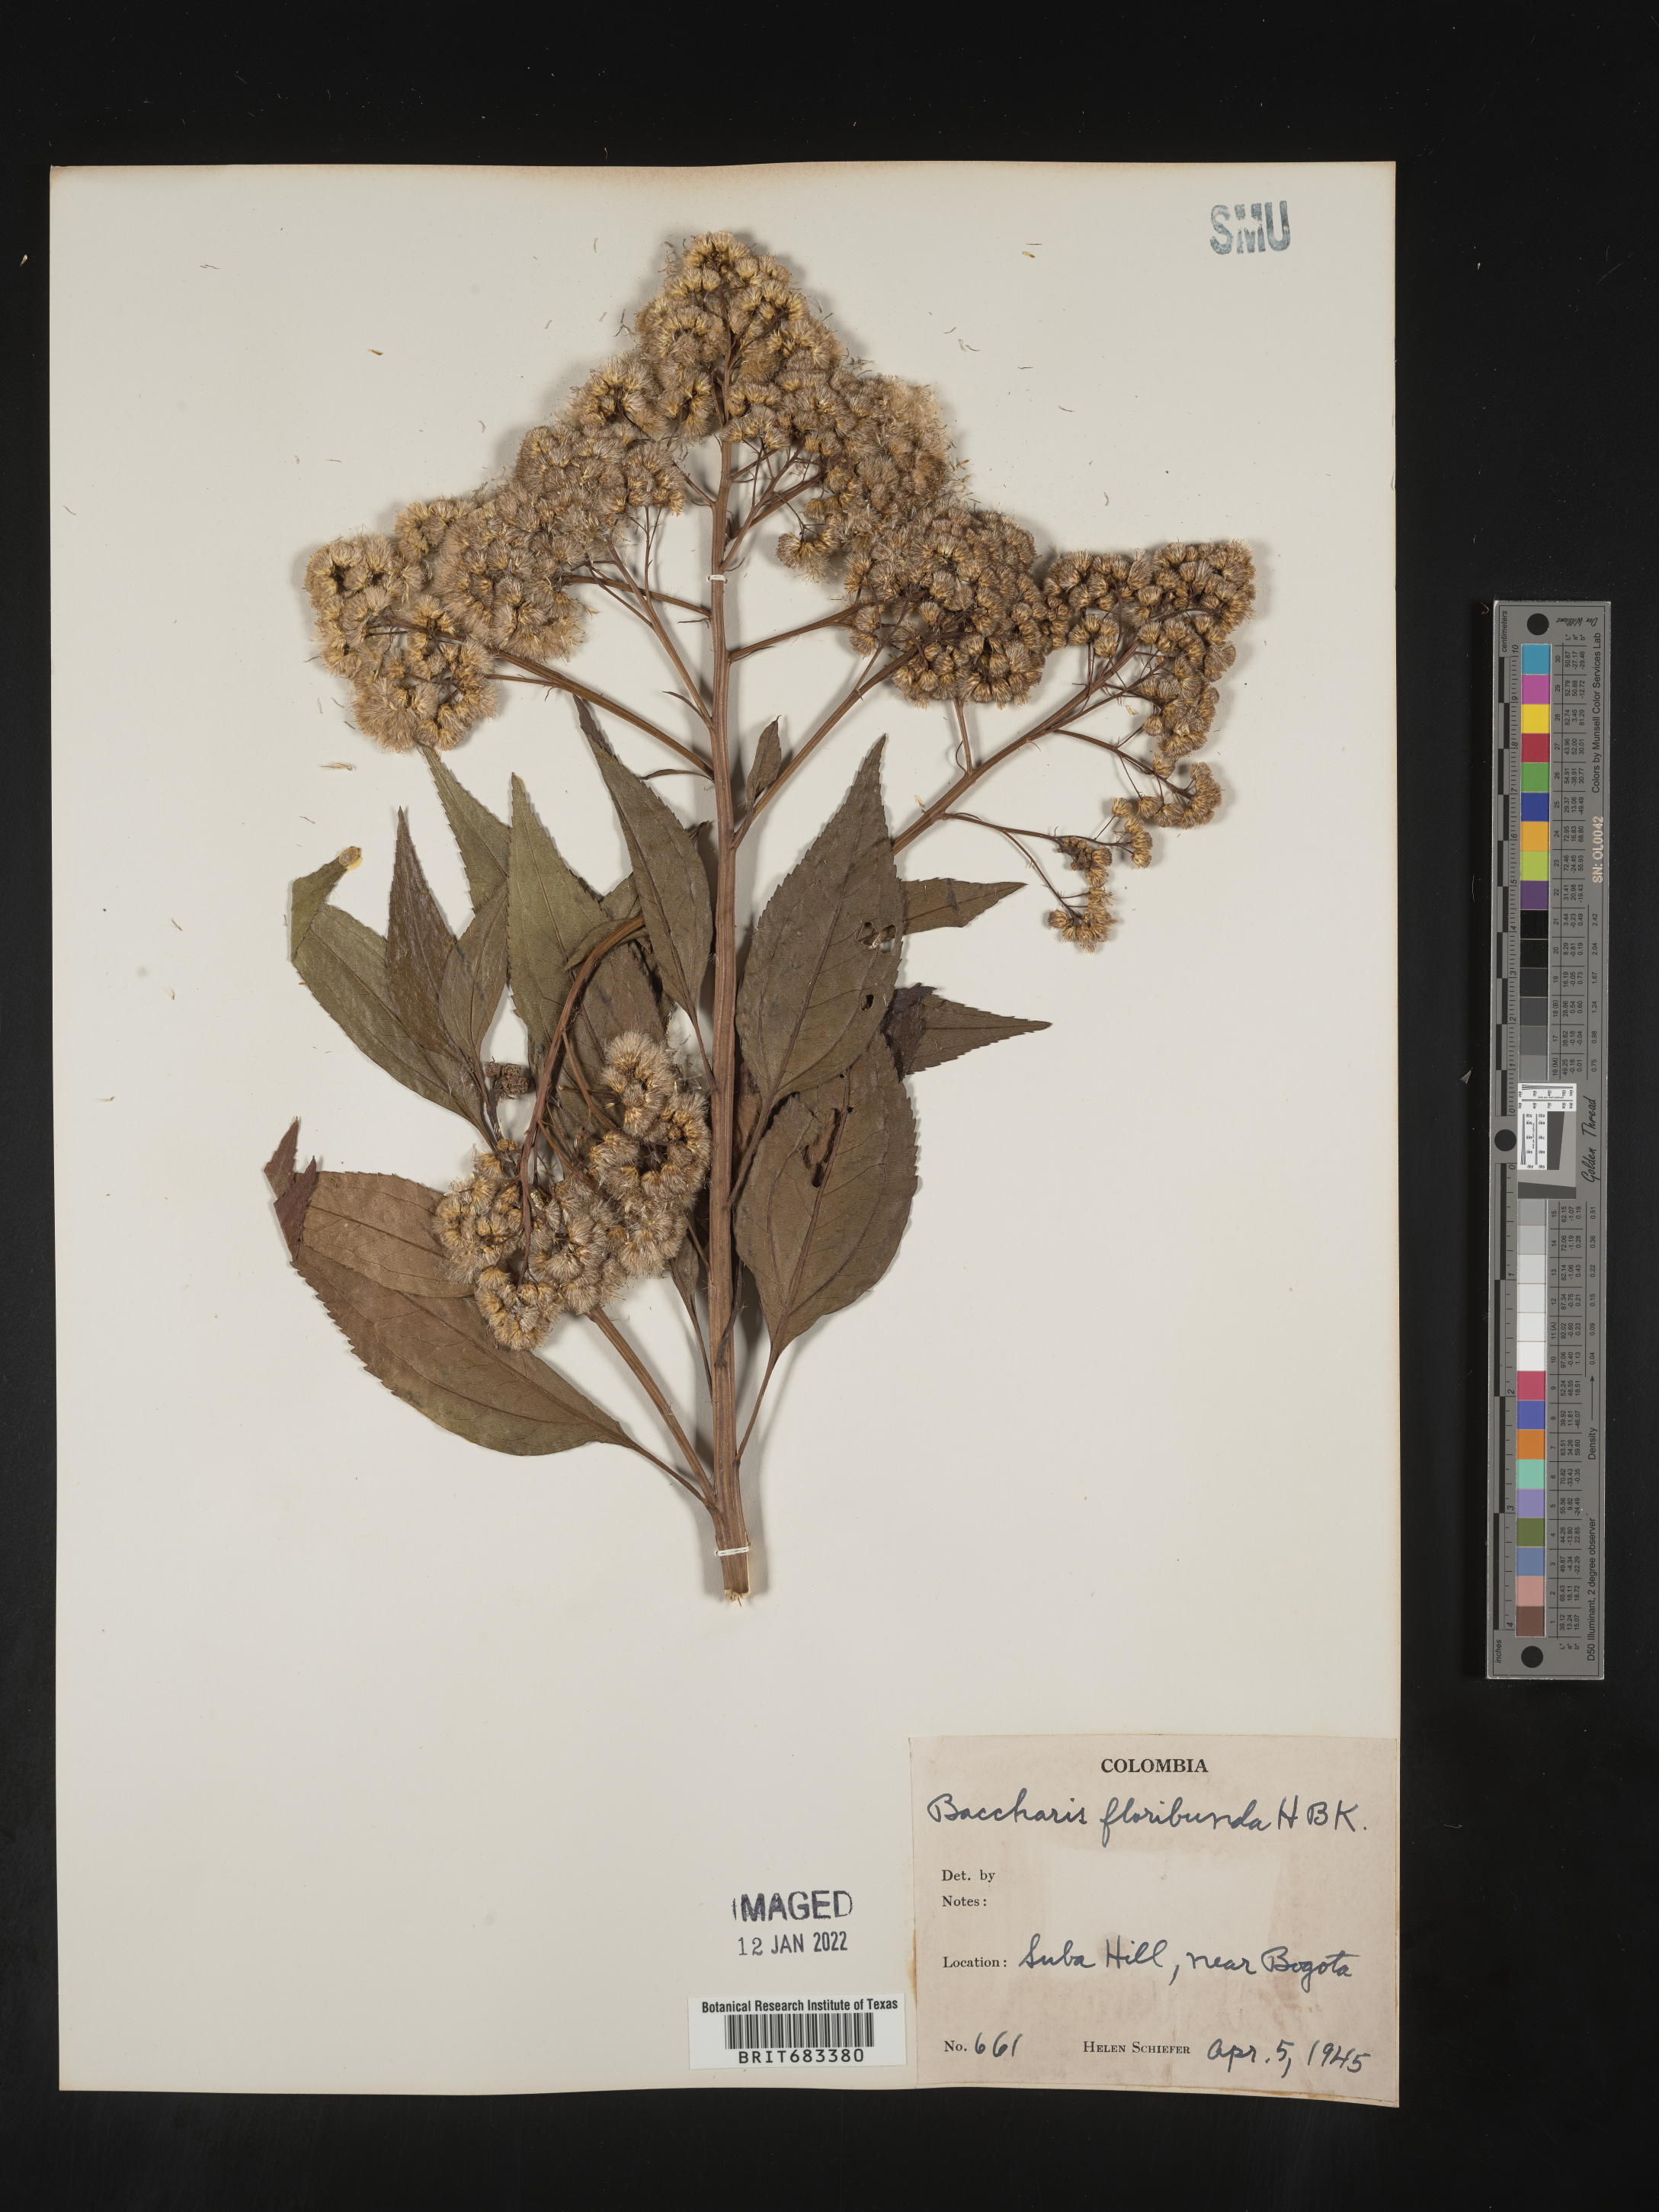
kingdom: Plantae
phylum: Tracheophyta
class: Magnoliopsida
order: Asterales
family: Asteraceae
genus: Baccharis
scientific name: Baccharis
